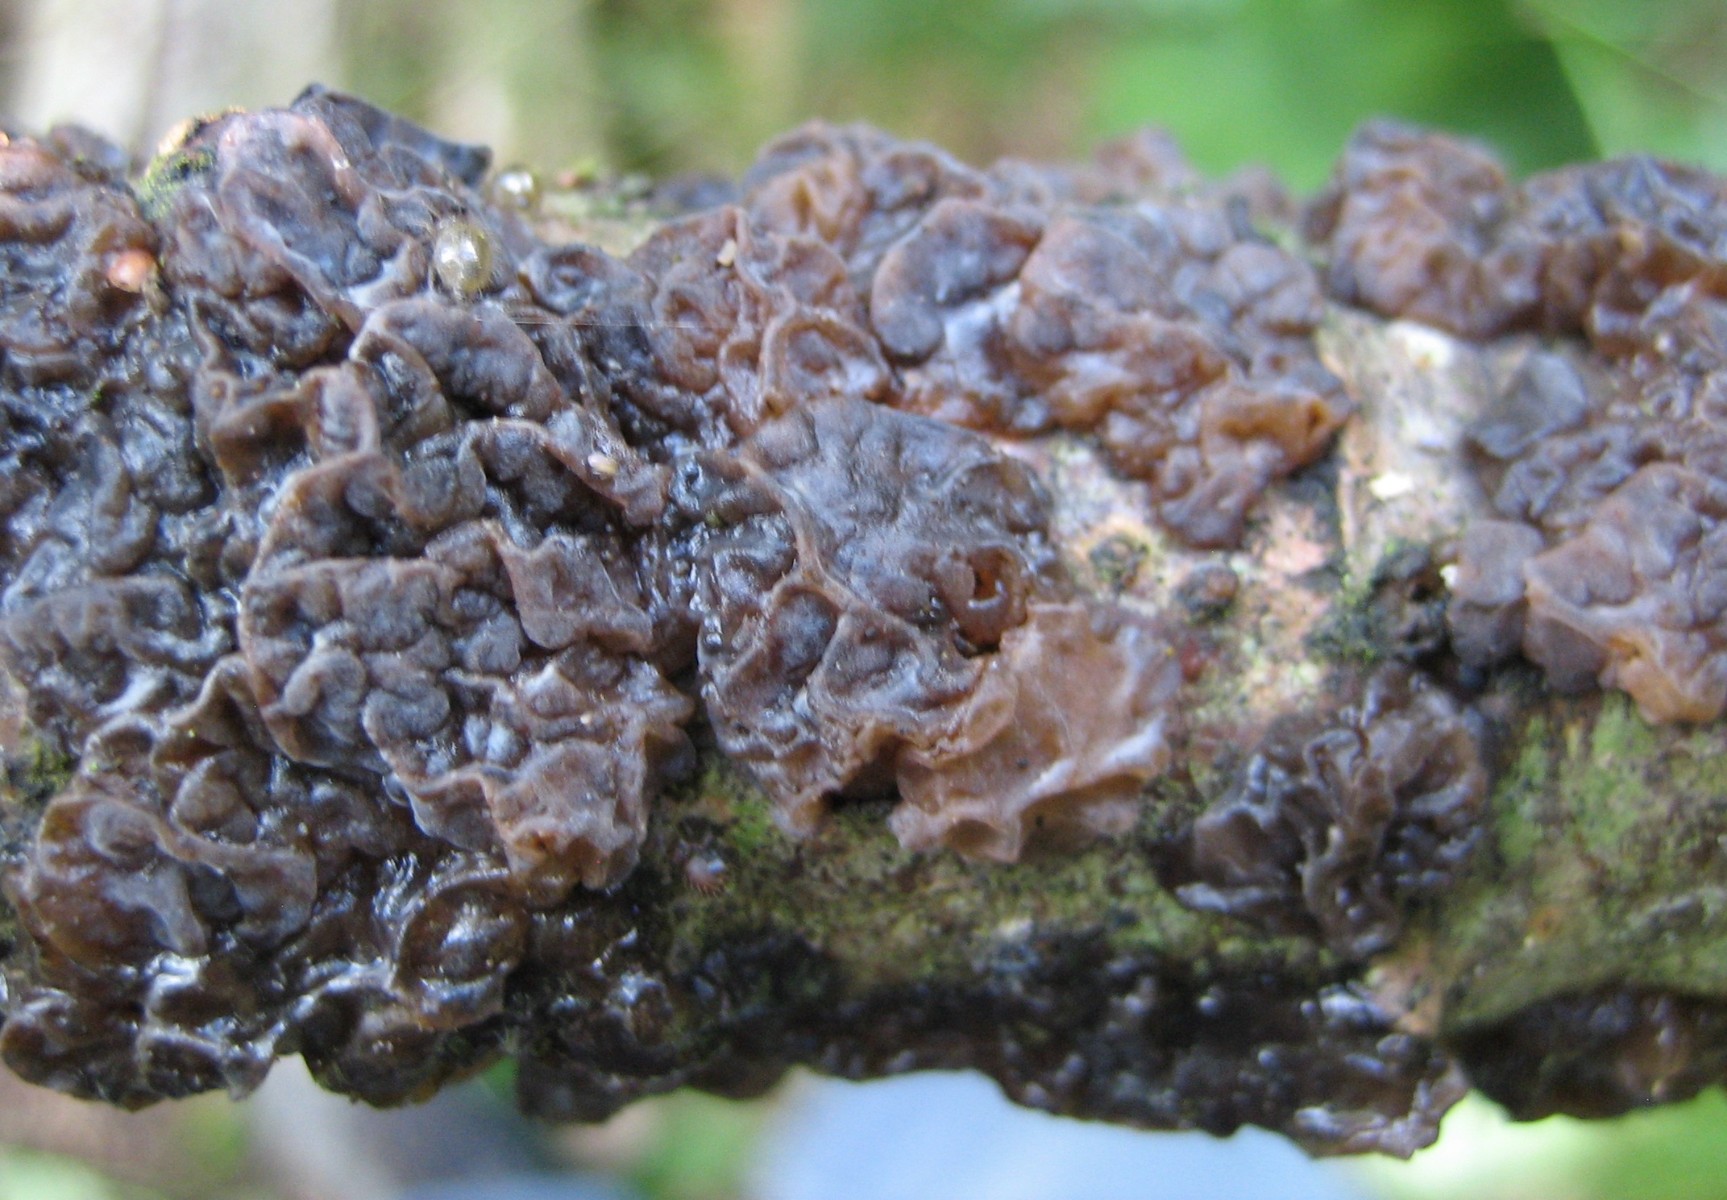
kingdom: Fungi
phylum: Basidiomycota
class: Agaricomycetes
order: Auriculariales
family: Auriculariaceae
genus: Exidia
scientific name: Exidia nigricans
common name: almindelig bævretop
